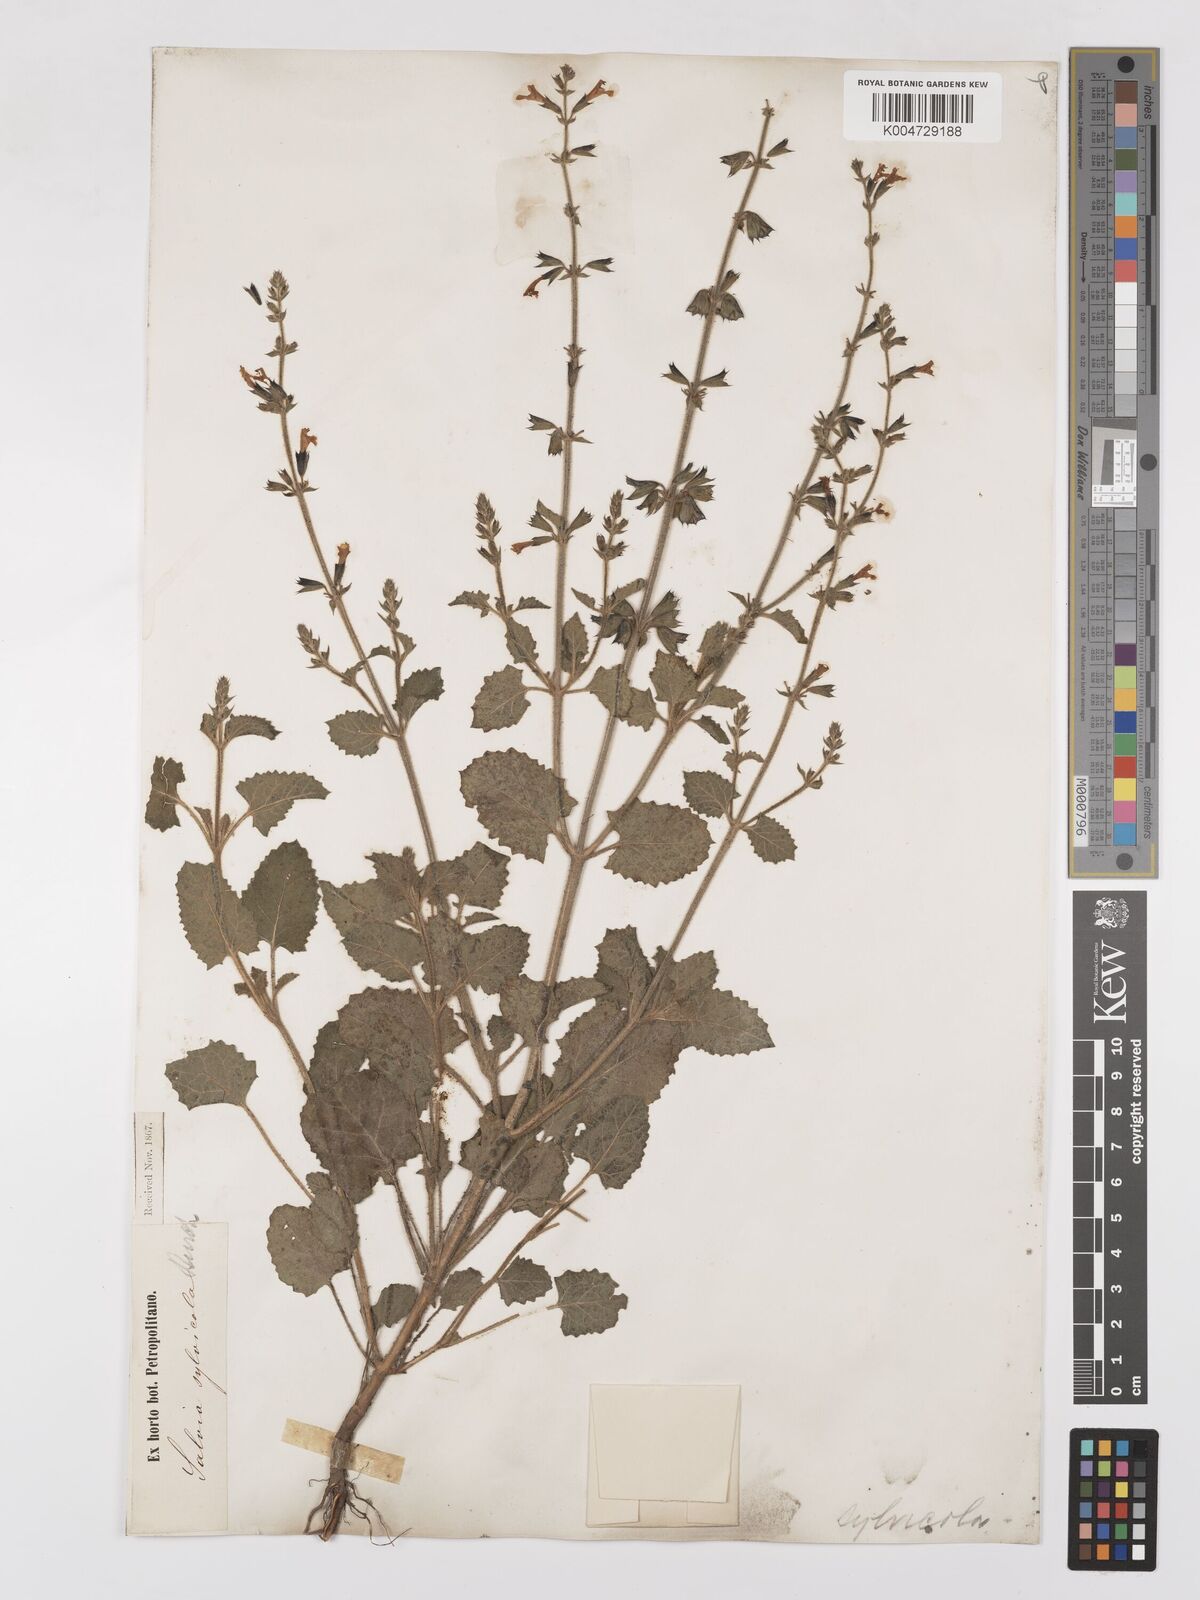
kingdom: Plantae
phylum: Tracheophyta
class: Magnoliopsida
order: Lamiales
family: Lamiaceae
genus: Salvia
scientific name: Salvia triangularis
